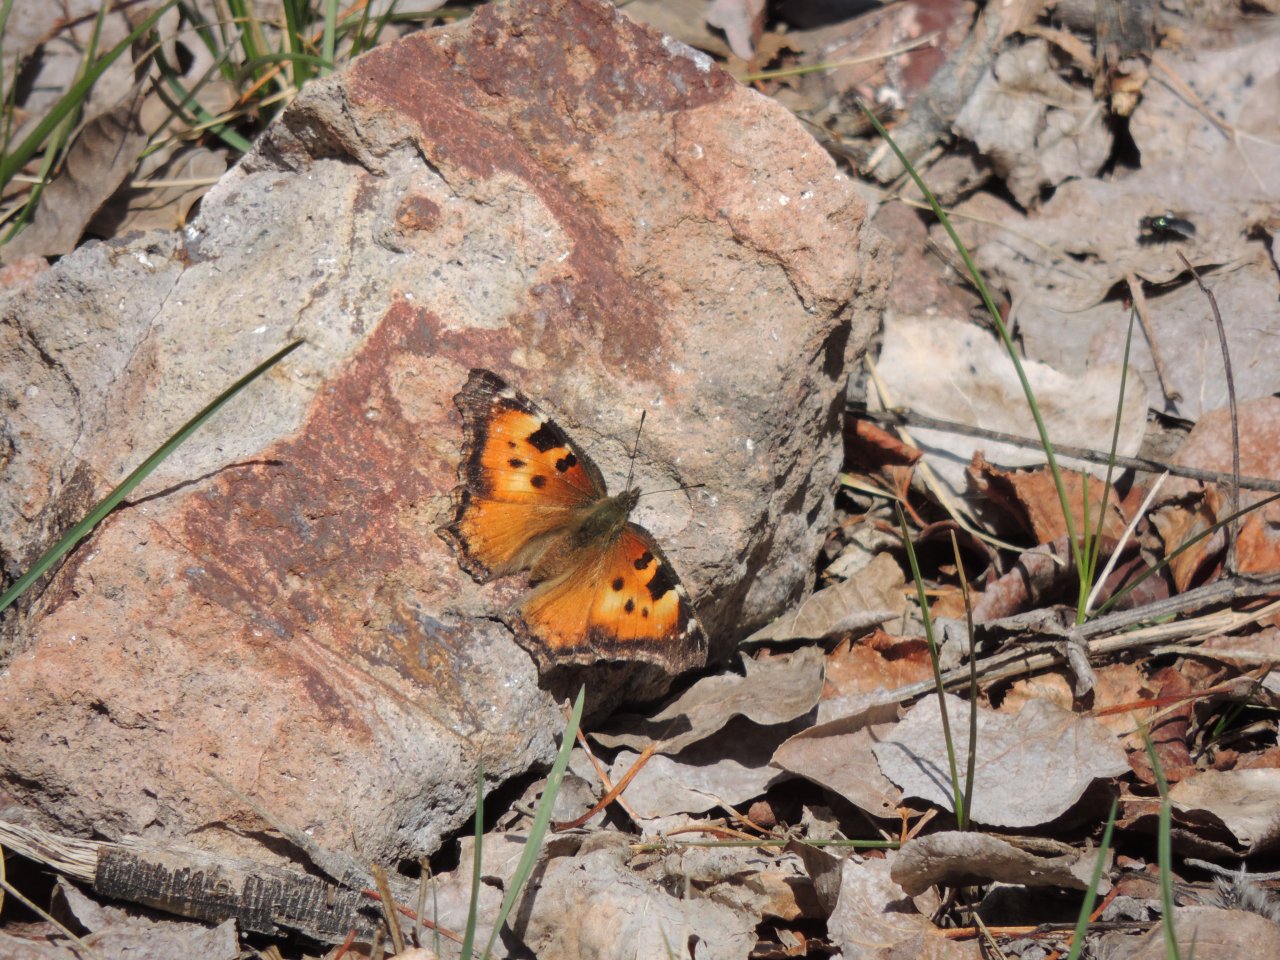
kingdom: Animalia
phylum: Arthropoda
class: Insecta
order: Lepidoptera
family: Nymphalidae
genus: Nymphalis
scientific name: Nymphalis californica
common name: California Tortoiseshell
